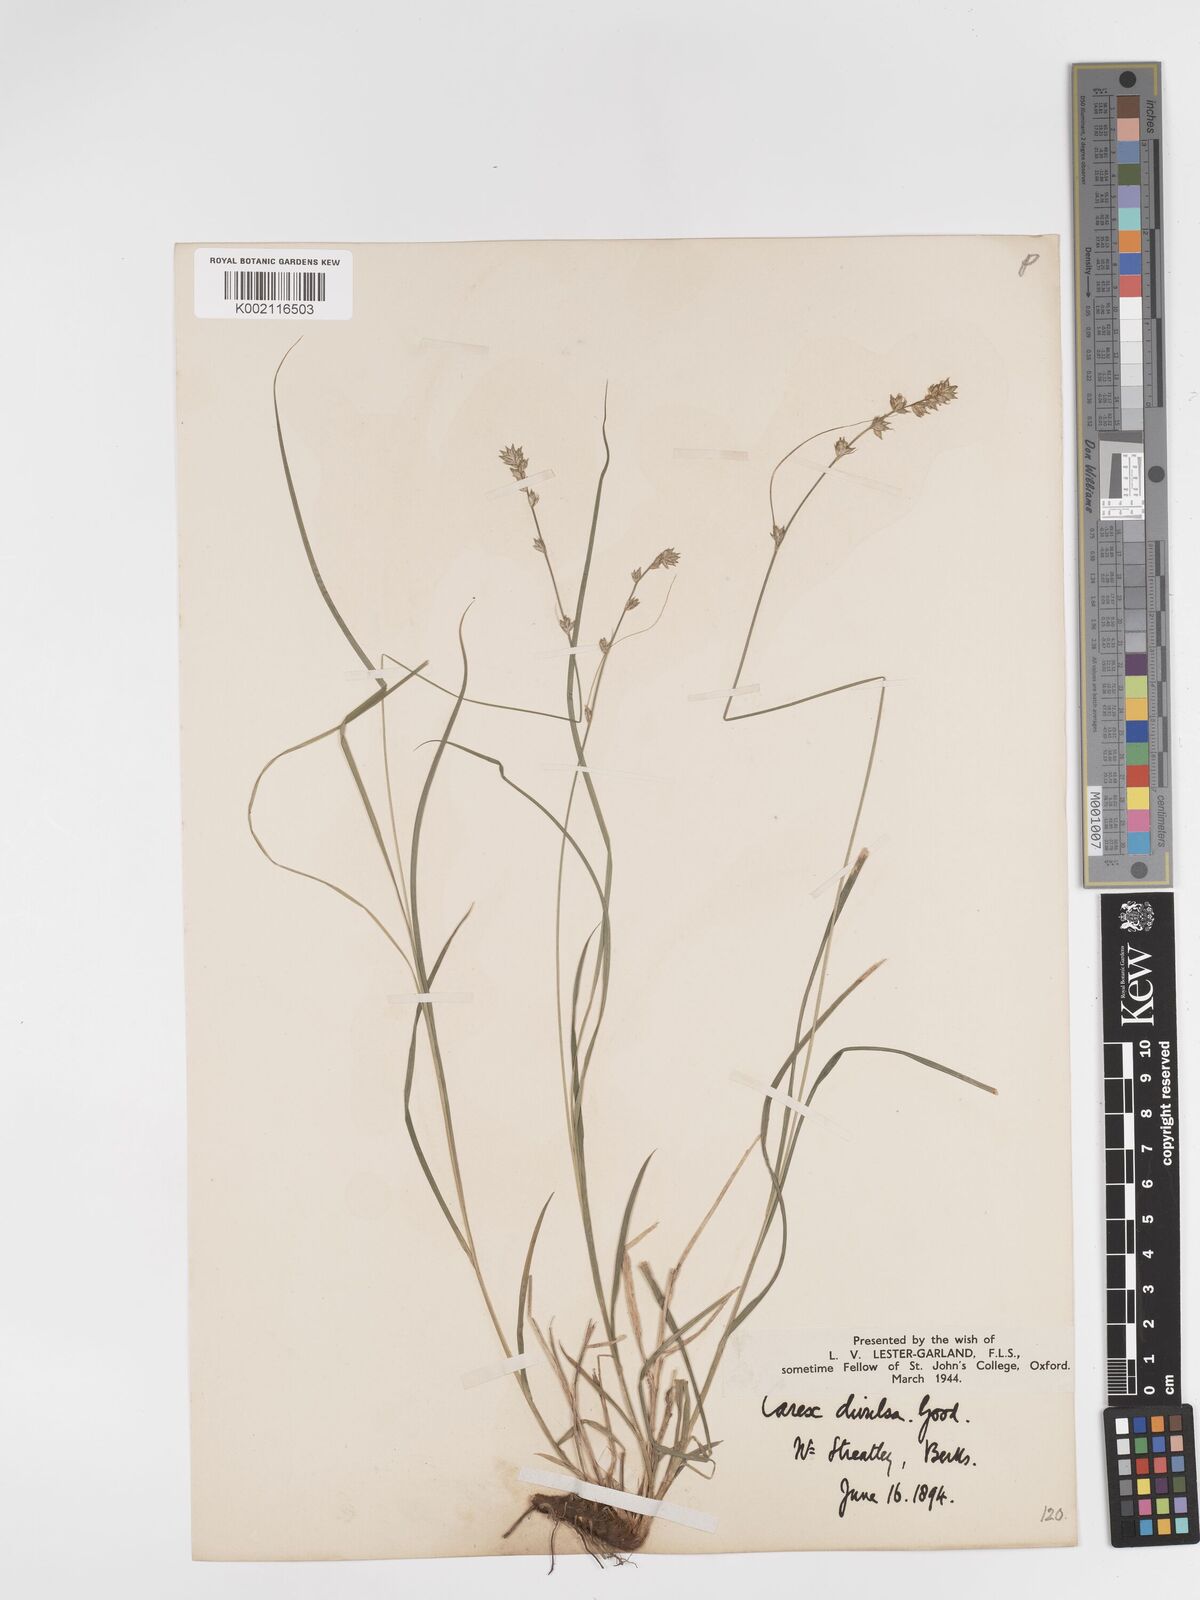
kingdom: Plantae
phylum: Tracheophyta
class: Liliopsida
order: Poales
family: Cyperaceae
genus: Carex
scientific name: Carex divulsa
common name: Grassland sedge
